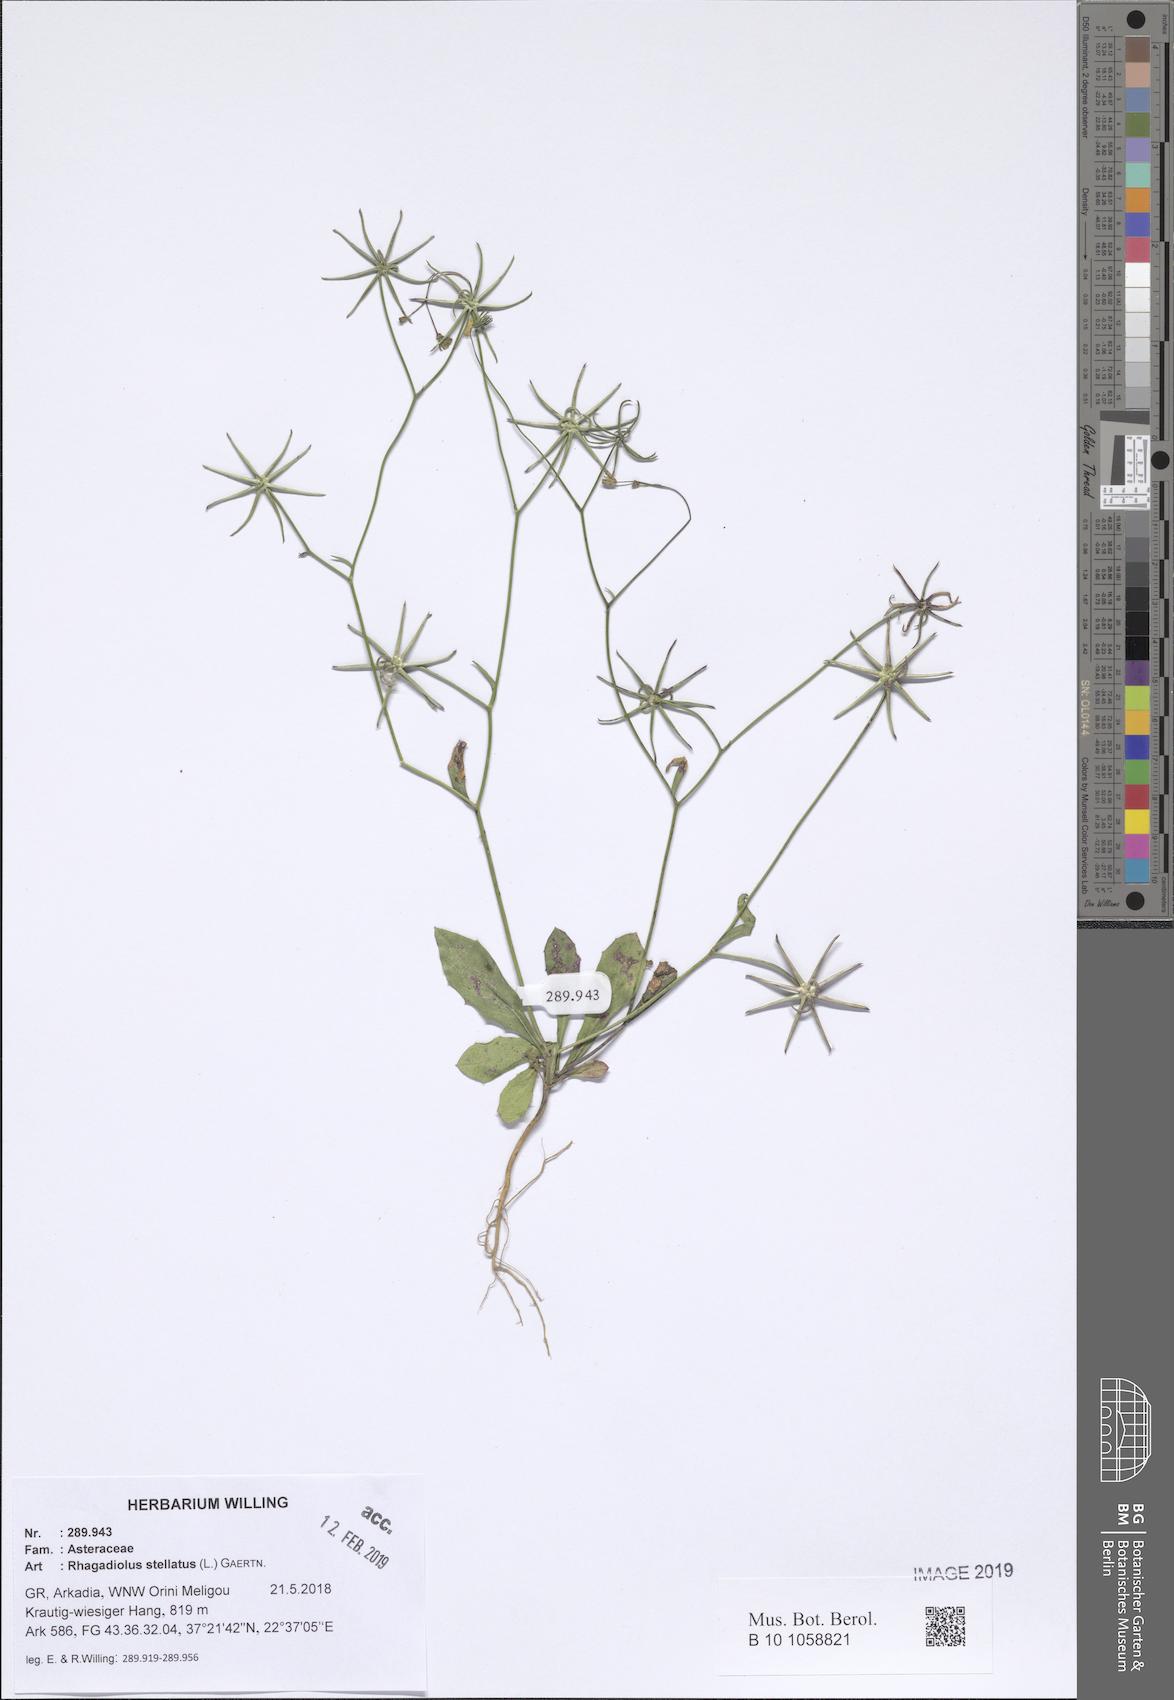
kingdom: Plantae
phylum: Tracheophyta
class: Magnoliopsida
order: Asterales
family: Asteraceae
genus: Rhagadiolus
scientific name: Rhagadiolus stellatus
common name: Star hawkbit
